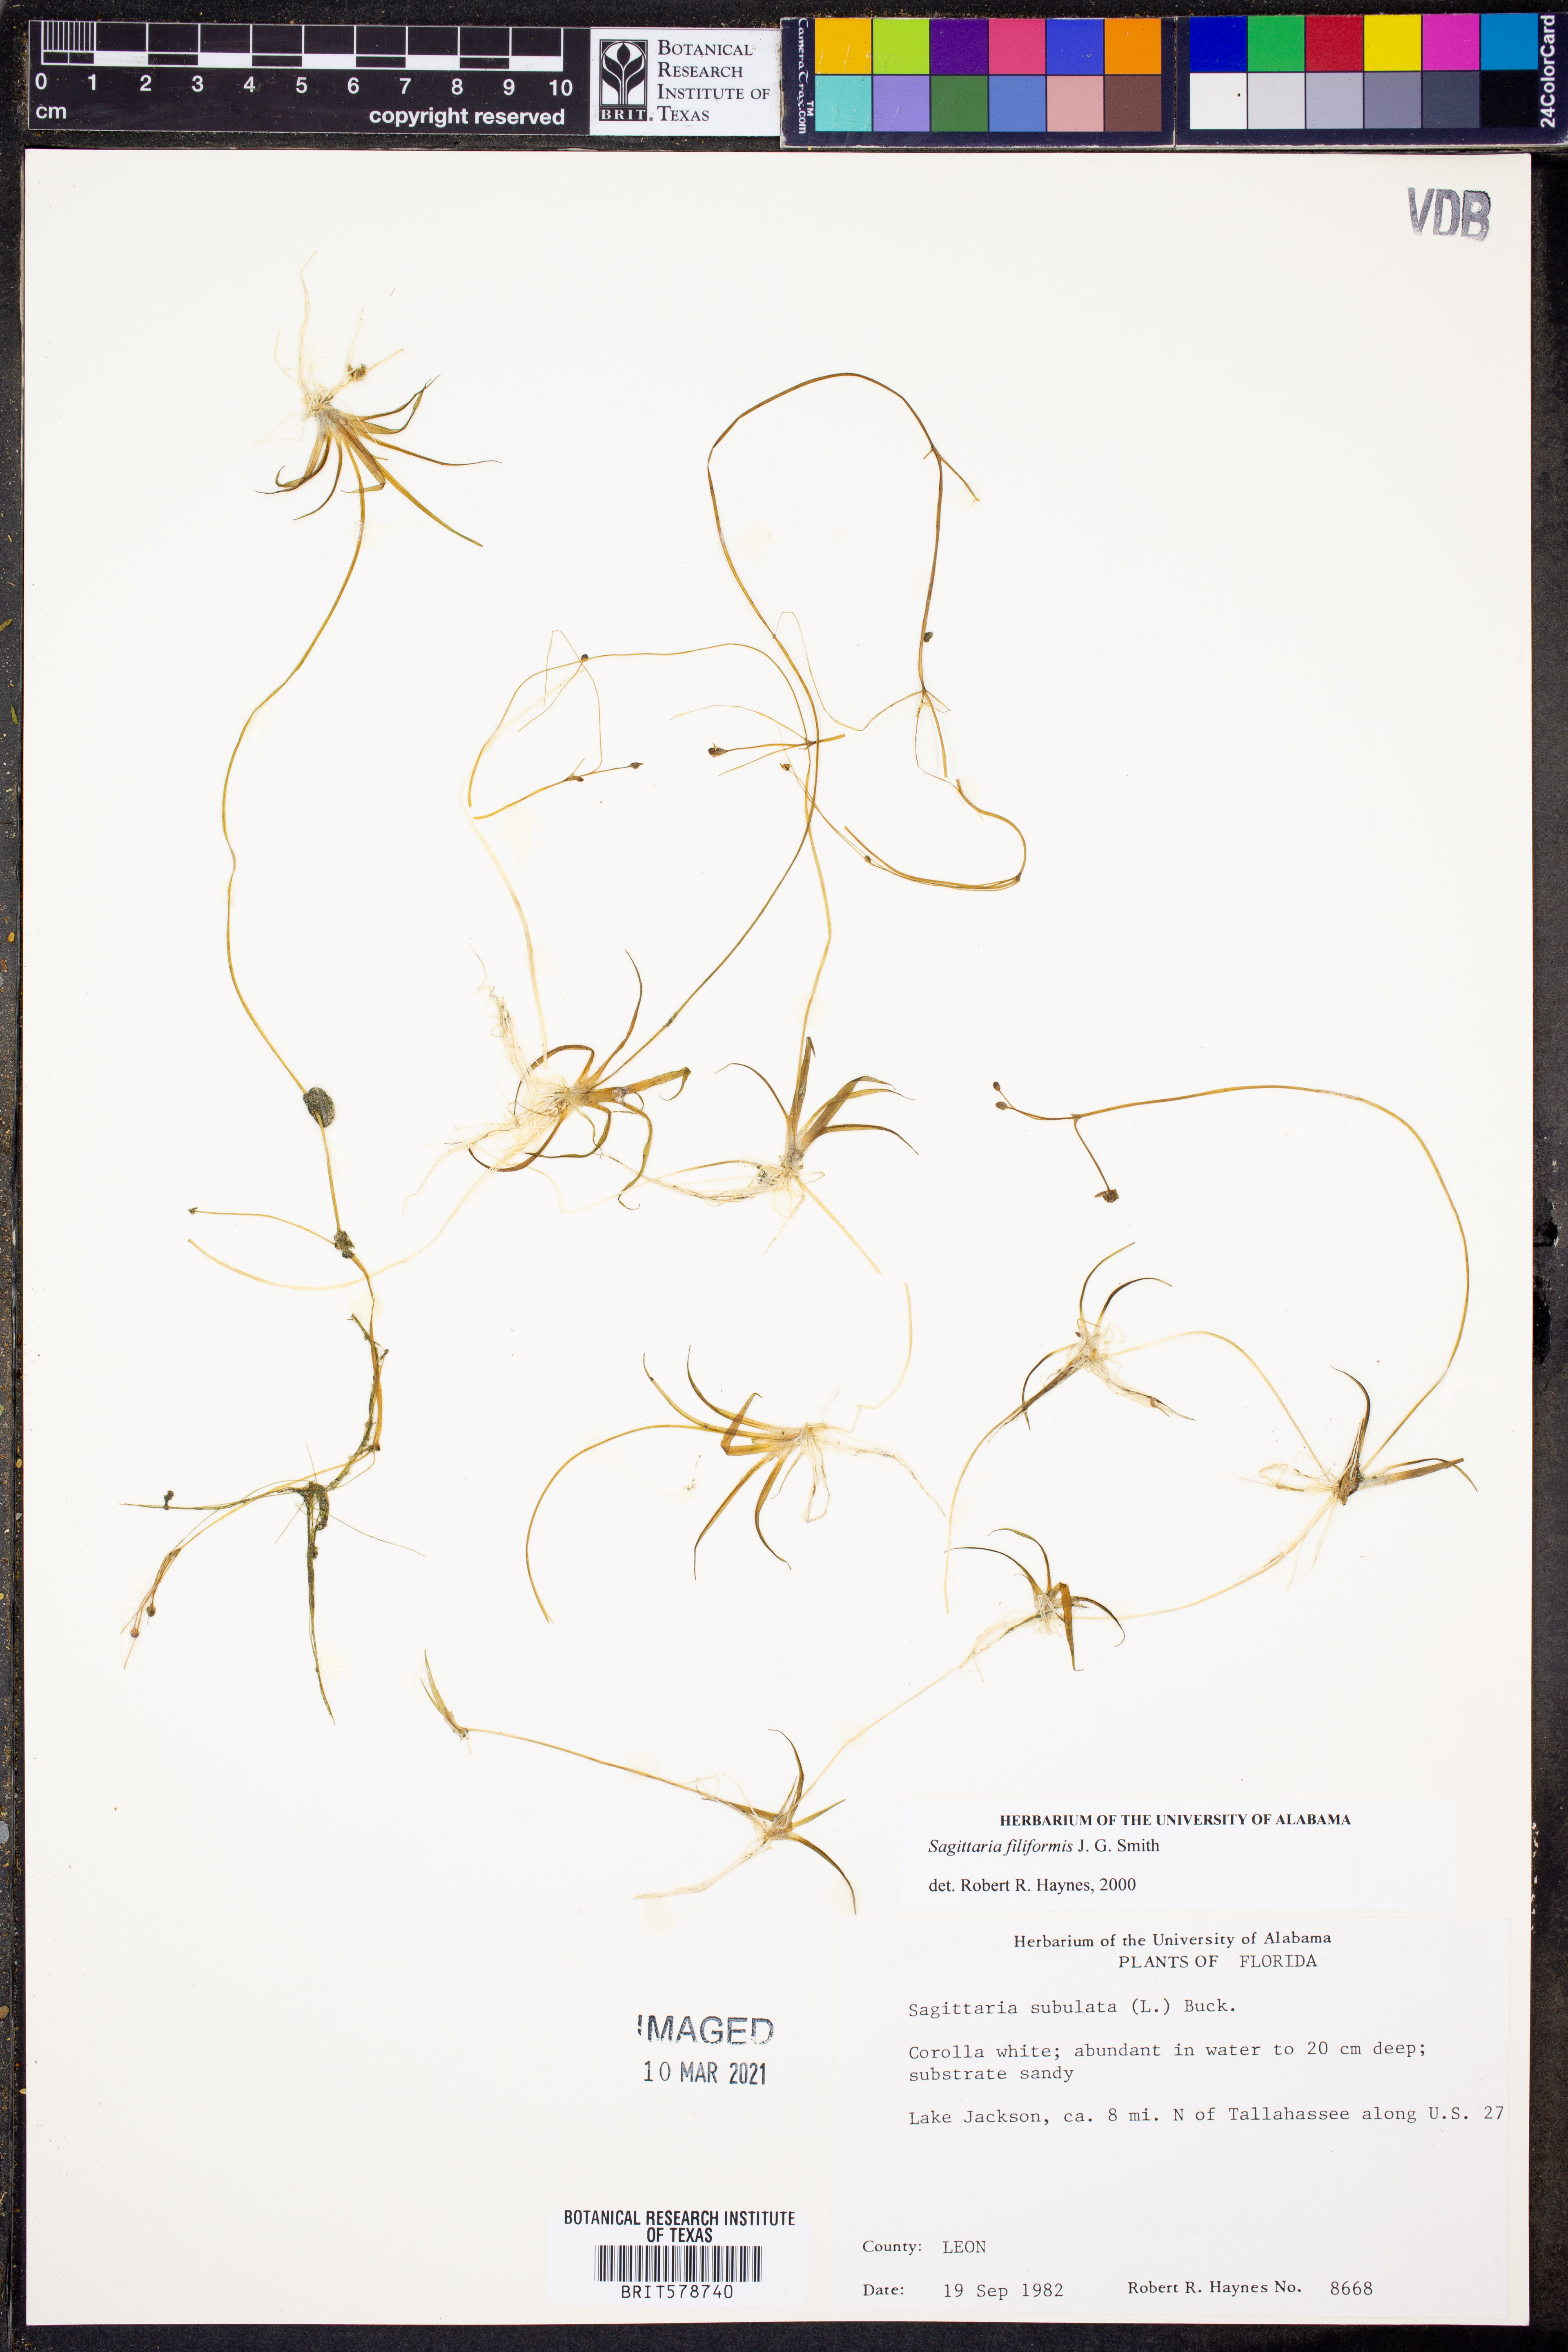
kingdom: Plantae
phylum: Tracheophyta
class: Liliopsida
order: Alismatales
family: Alismataceae
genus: Sagittaria
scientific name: Sagittaria filiformis
